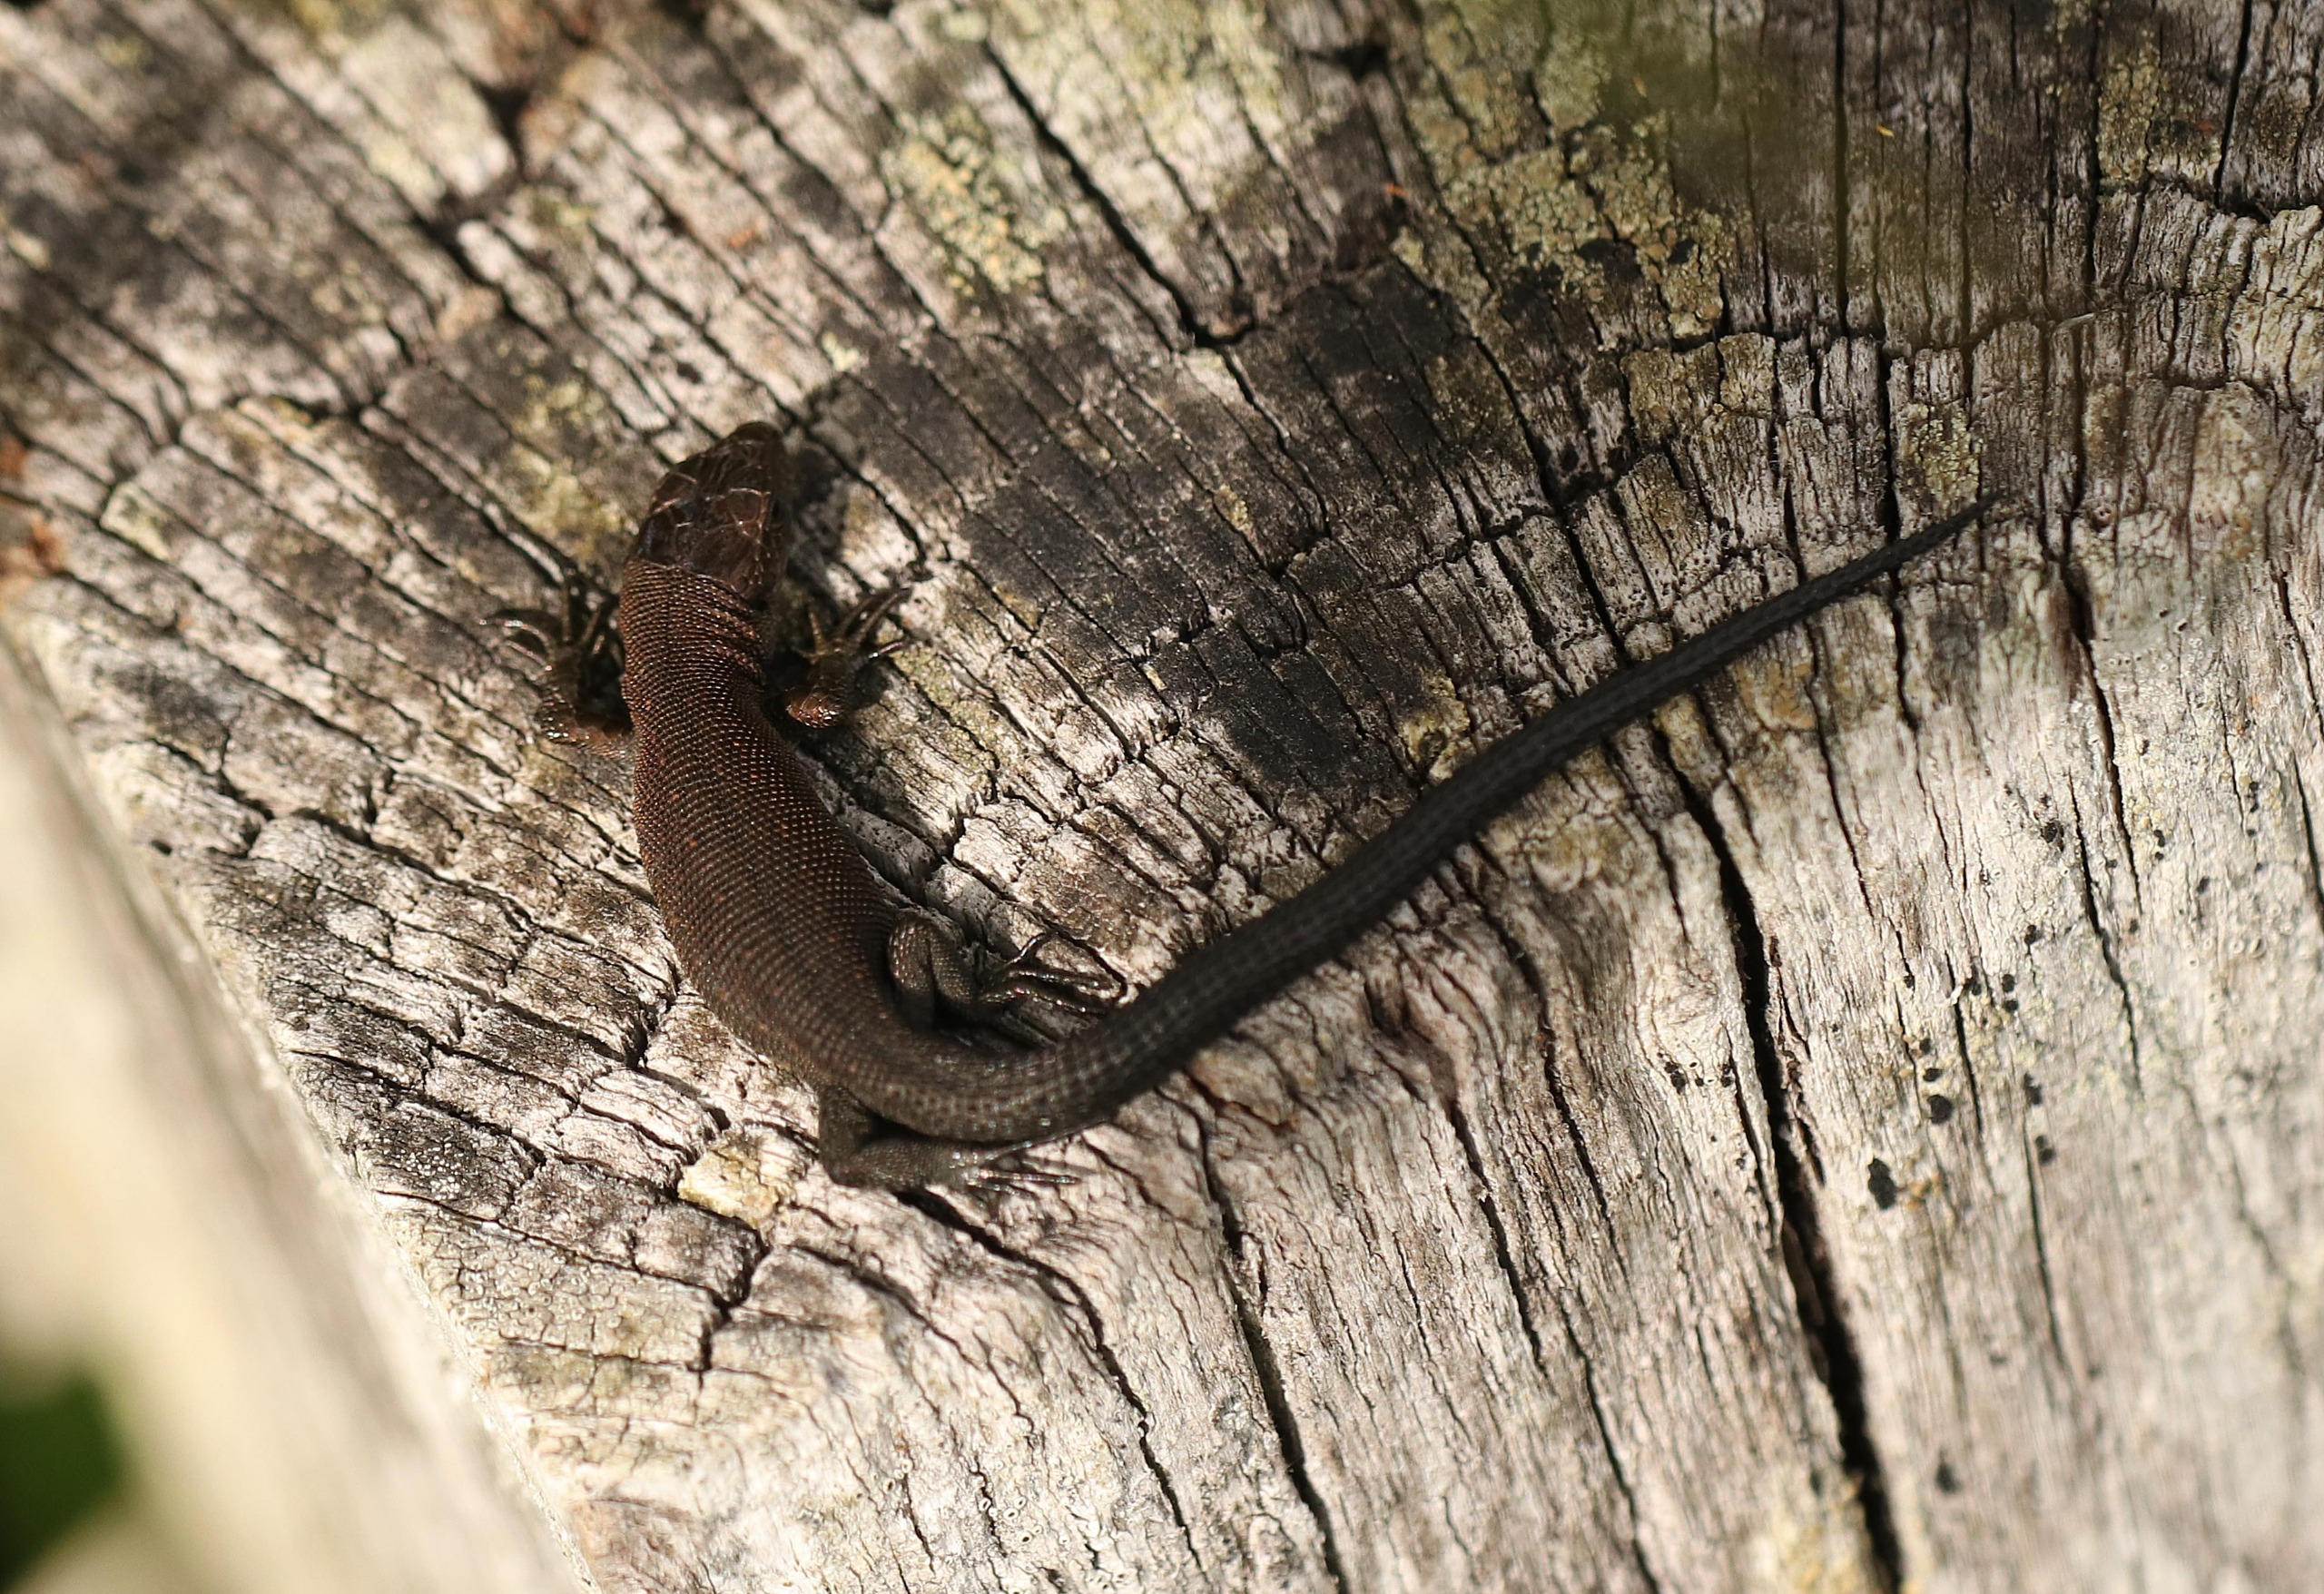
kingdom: Animalia
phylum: Chordata
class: Squamata
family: Lacertidae
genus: Zootoca
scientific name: Zootoca vivipara
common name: Skovfirben
